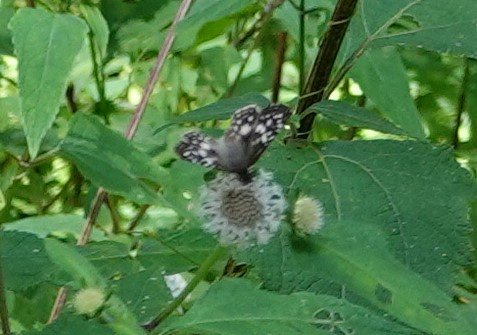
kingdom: Animalia
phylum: Arthropoda
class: Insecta
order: Lepidoptera
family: Hesperiidae
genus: Pyrgus
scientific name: Pyrgus oileus
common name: Tropical Checkered-Skipper
